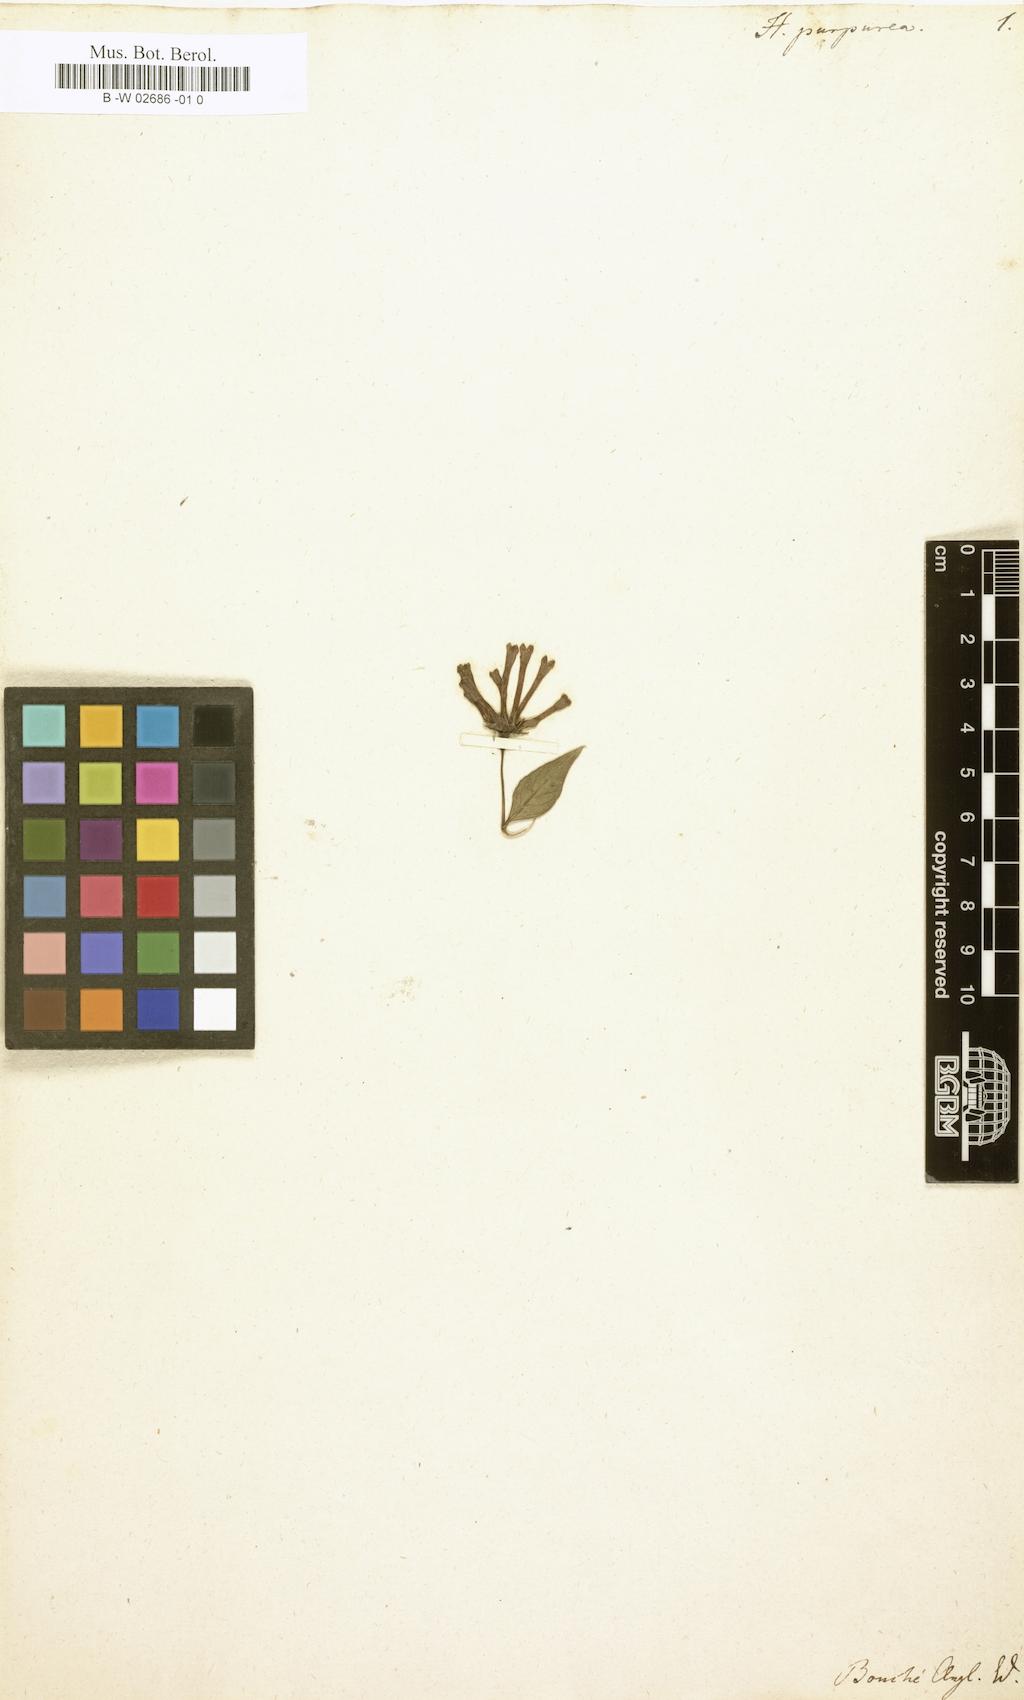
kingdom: Plantae
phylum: Tracheophyta
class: Magnoliopsida
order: Gentianales
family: Rubiaceae
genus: Houstonia
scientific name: Houstonia purpurea
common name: Summer bluet
